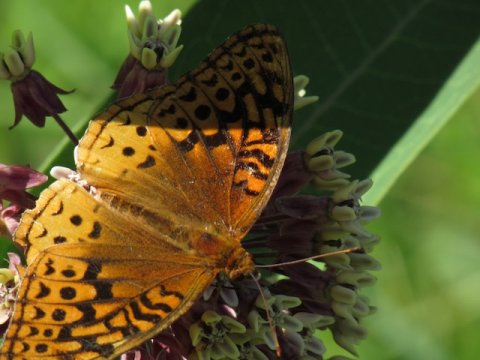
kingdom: Animalia
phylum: Arthropoda
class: Insecta
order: Lepidoptera
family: Nymphalidae
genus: Speyeria
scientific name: Speyeria cybele
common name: Great Spangled Fritillary
